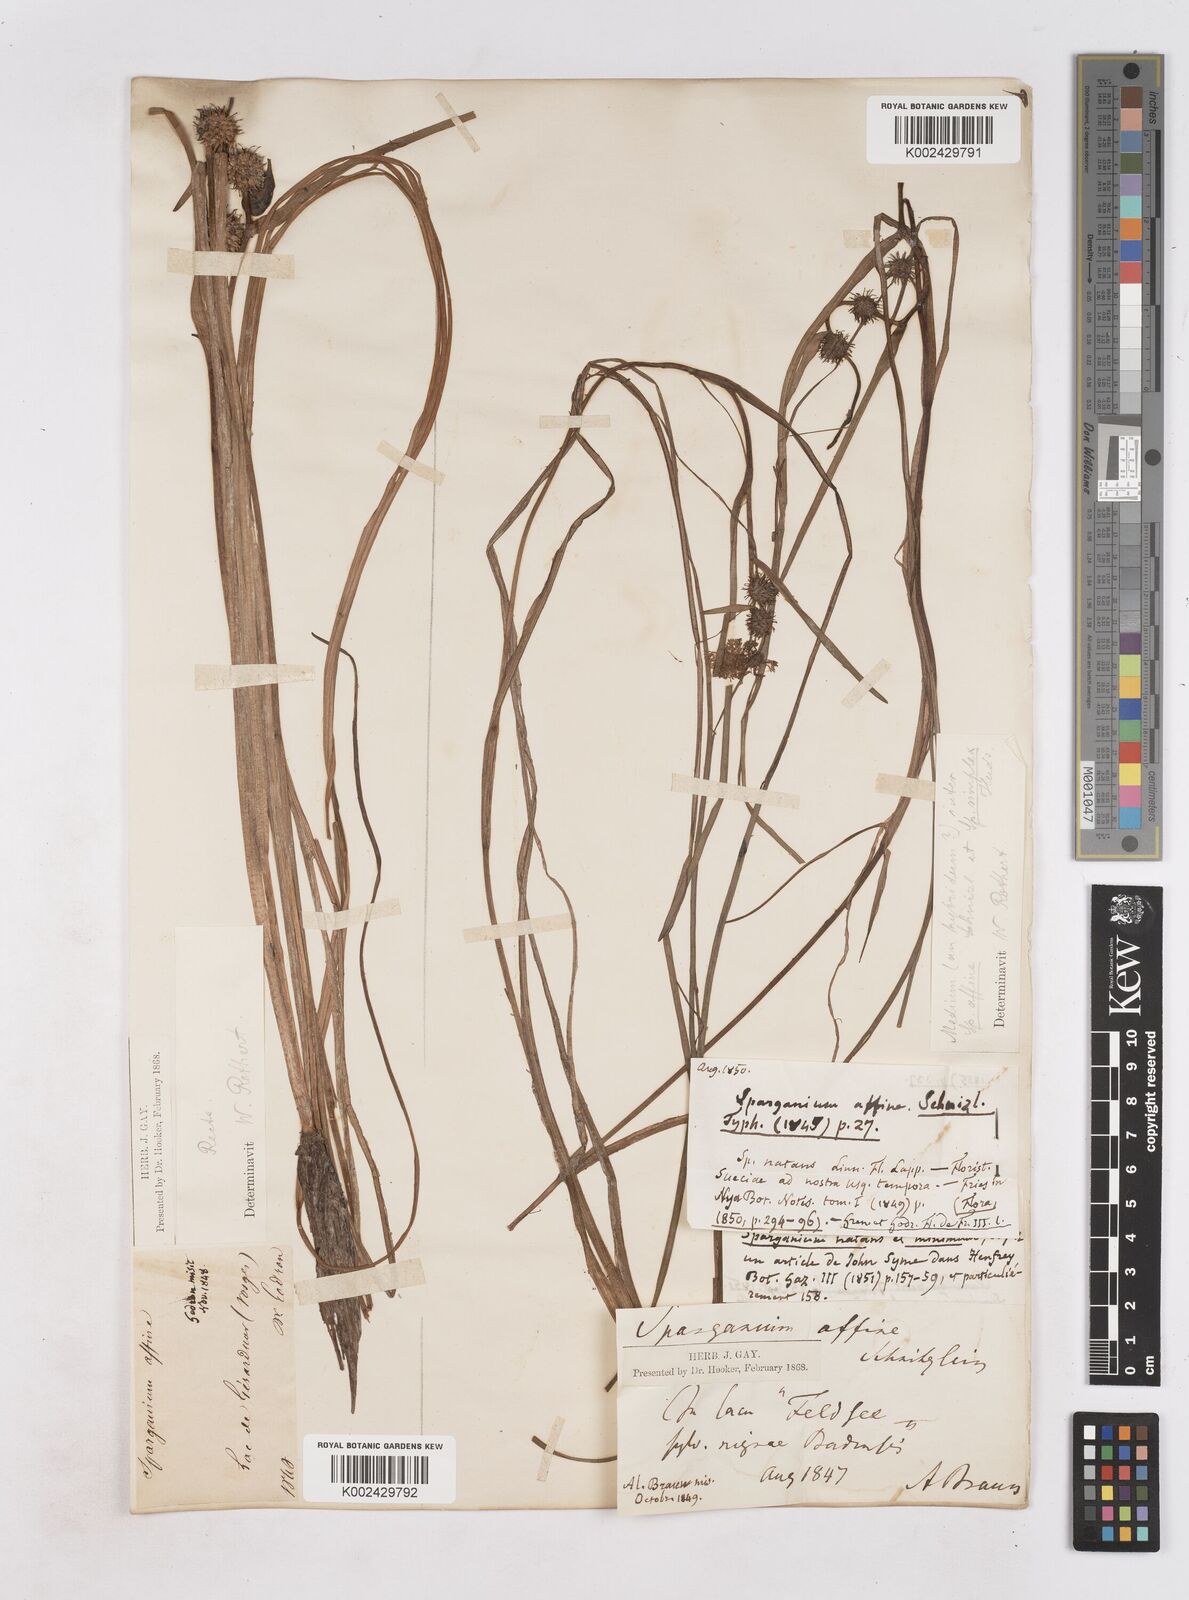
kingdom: Plantae
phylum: Tracheophyta
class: Liliopsida
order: Poales
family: Typhaceae
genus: Sparganium
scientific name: Sparganium angustifolium
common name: Floating bur-reed
